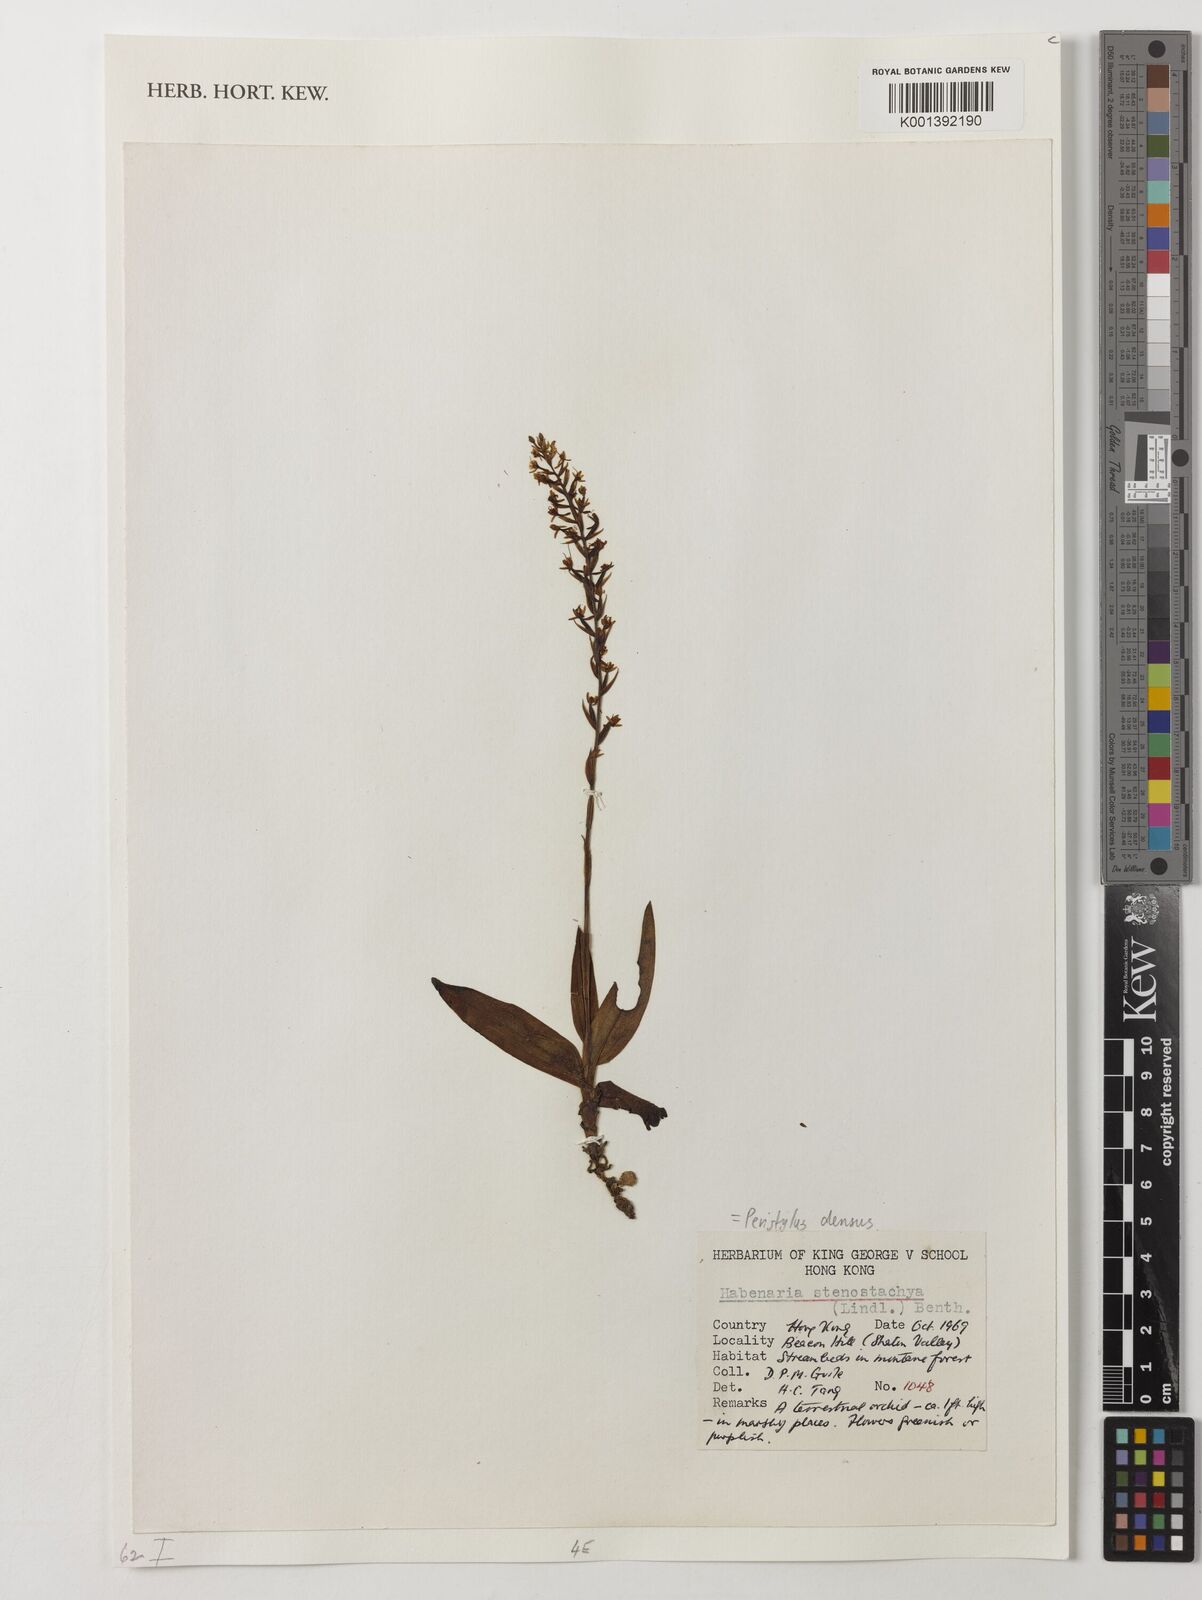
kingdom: Plantae
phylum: Tracheophyta
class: Liliopsida
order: Asparagales
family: Orchidaceae
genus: Peristylus
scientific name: Peristylus densus
